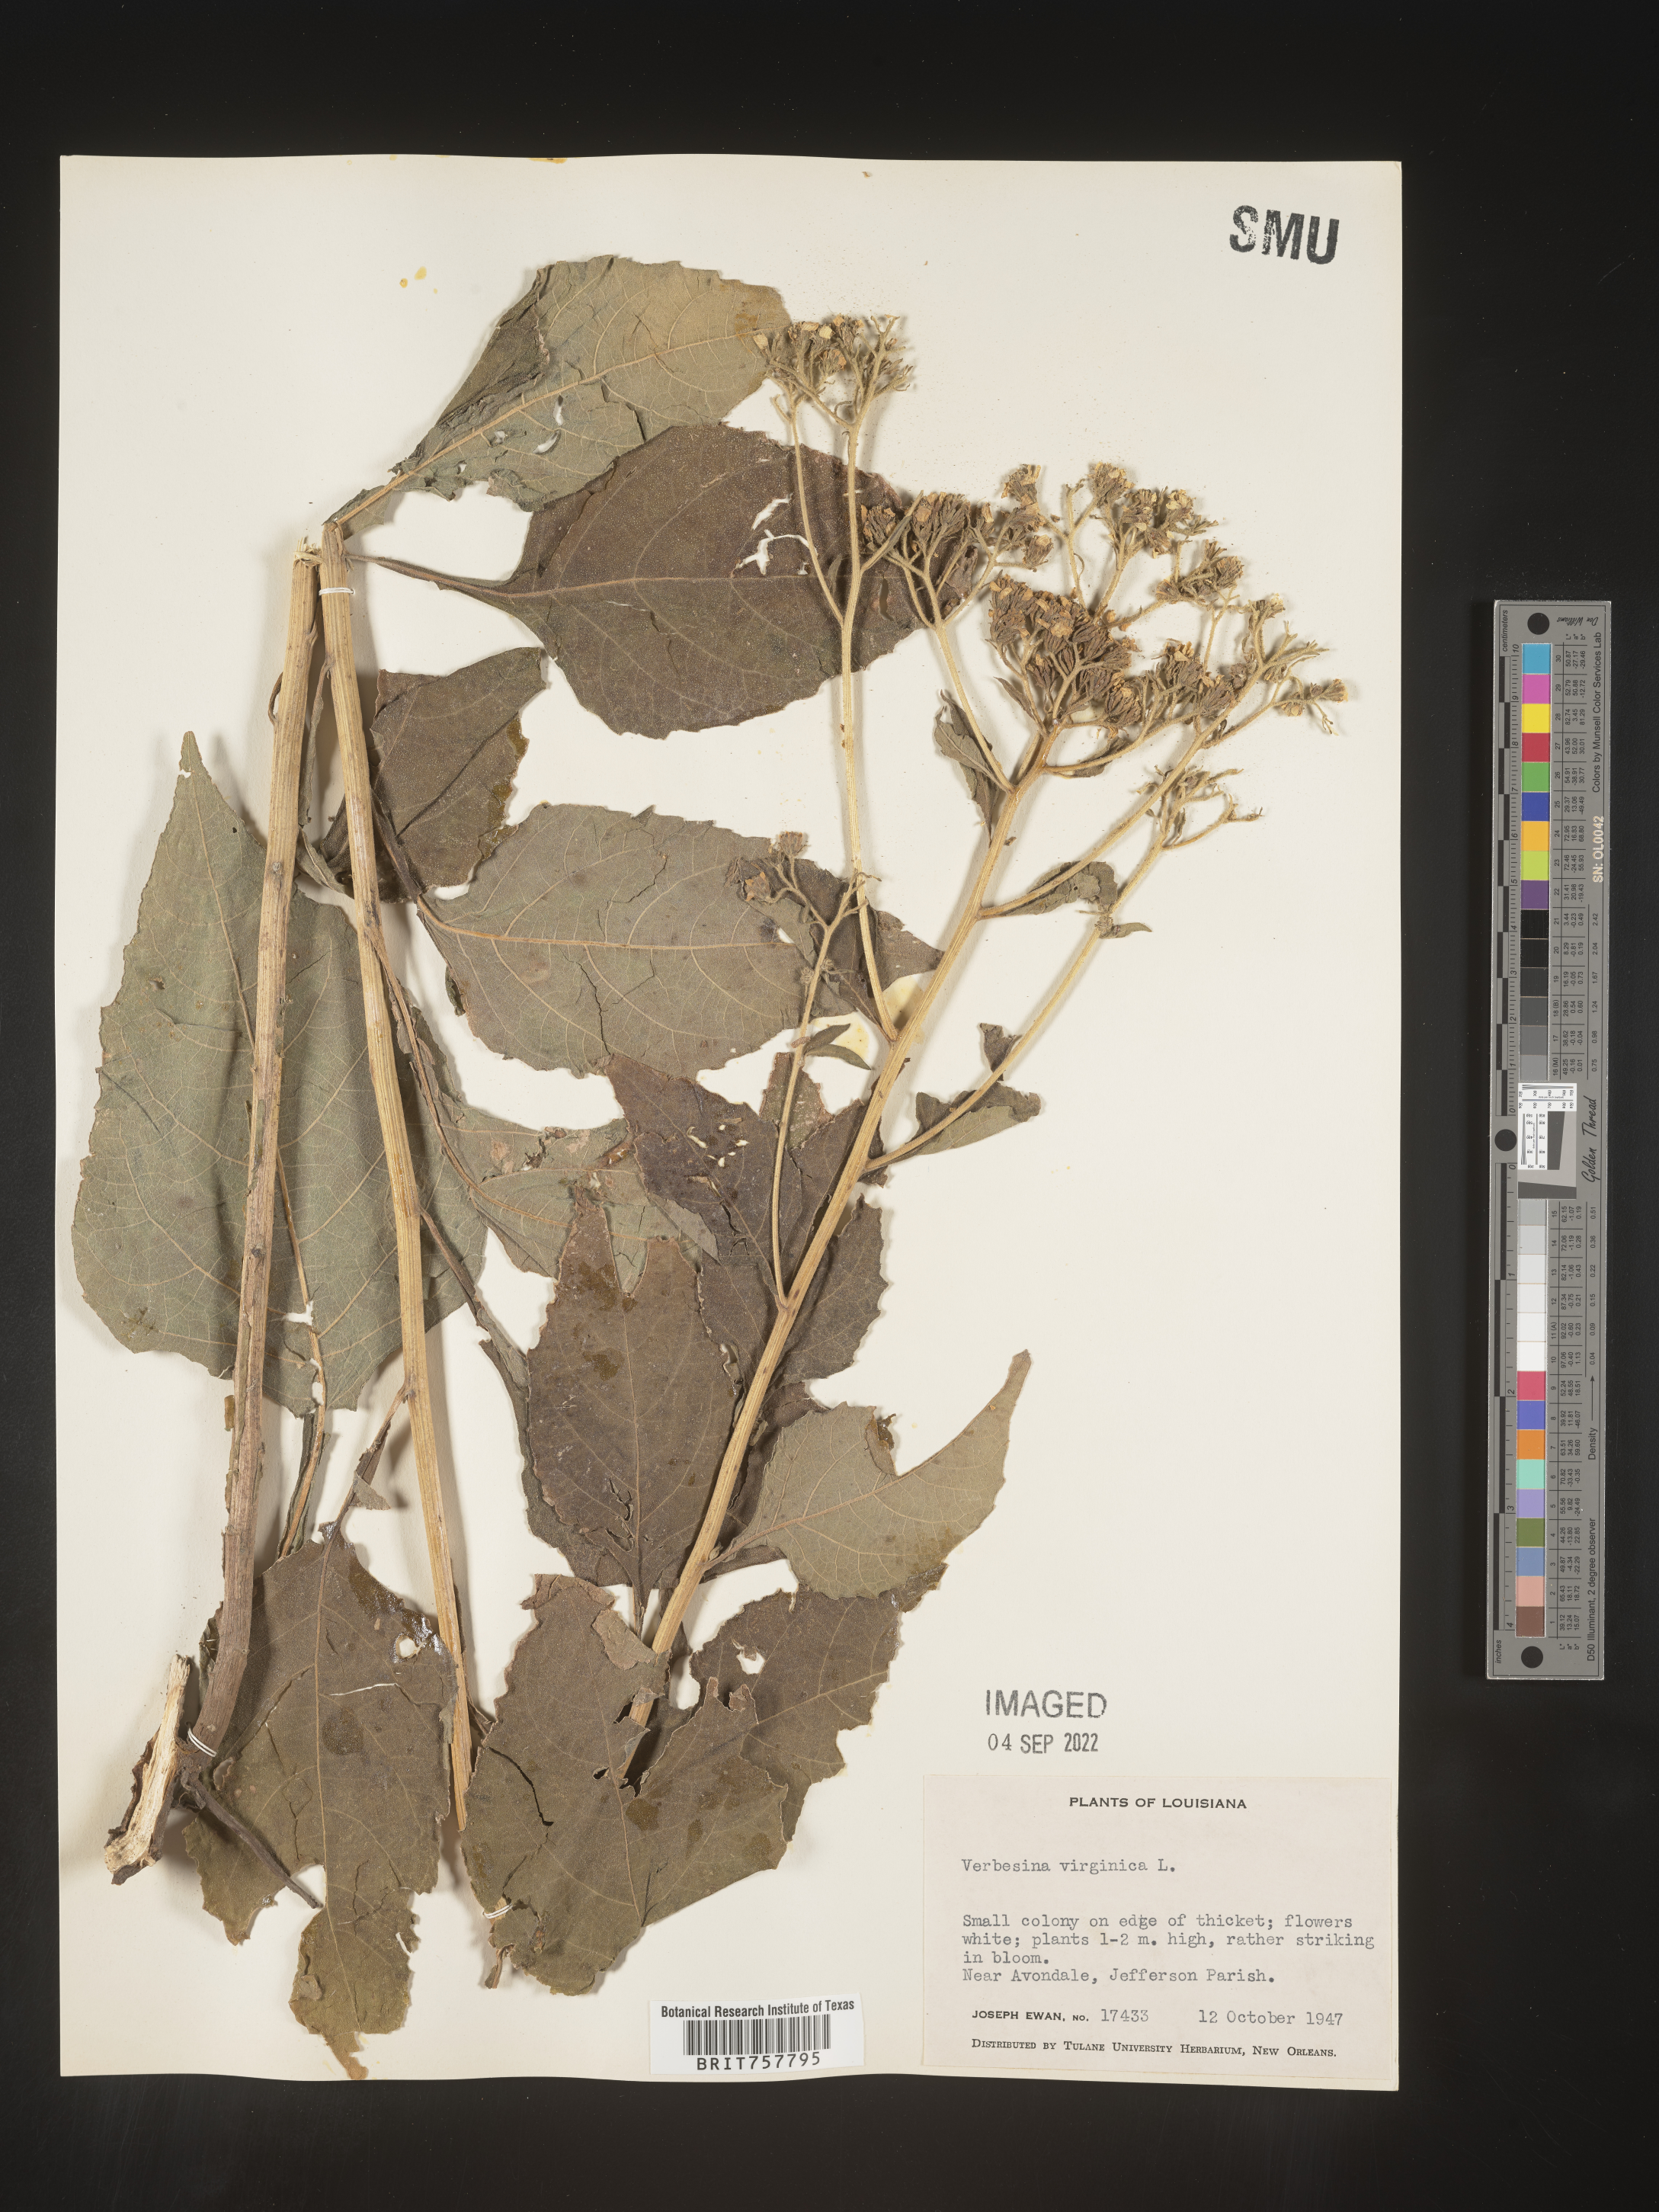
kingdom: Plantae
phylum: Tracheophyta
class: Magnoliopsida
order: Asterales
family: Asteraceae
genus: Verbesina
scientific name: Verbesina virginica
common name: Frostweed
